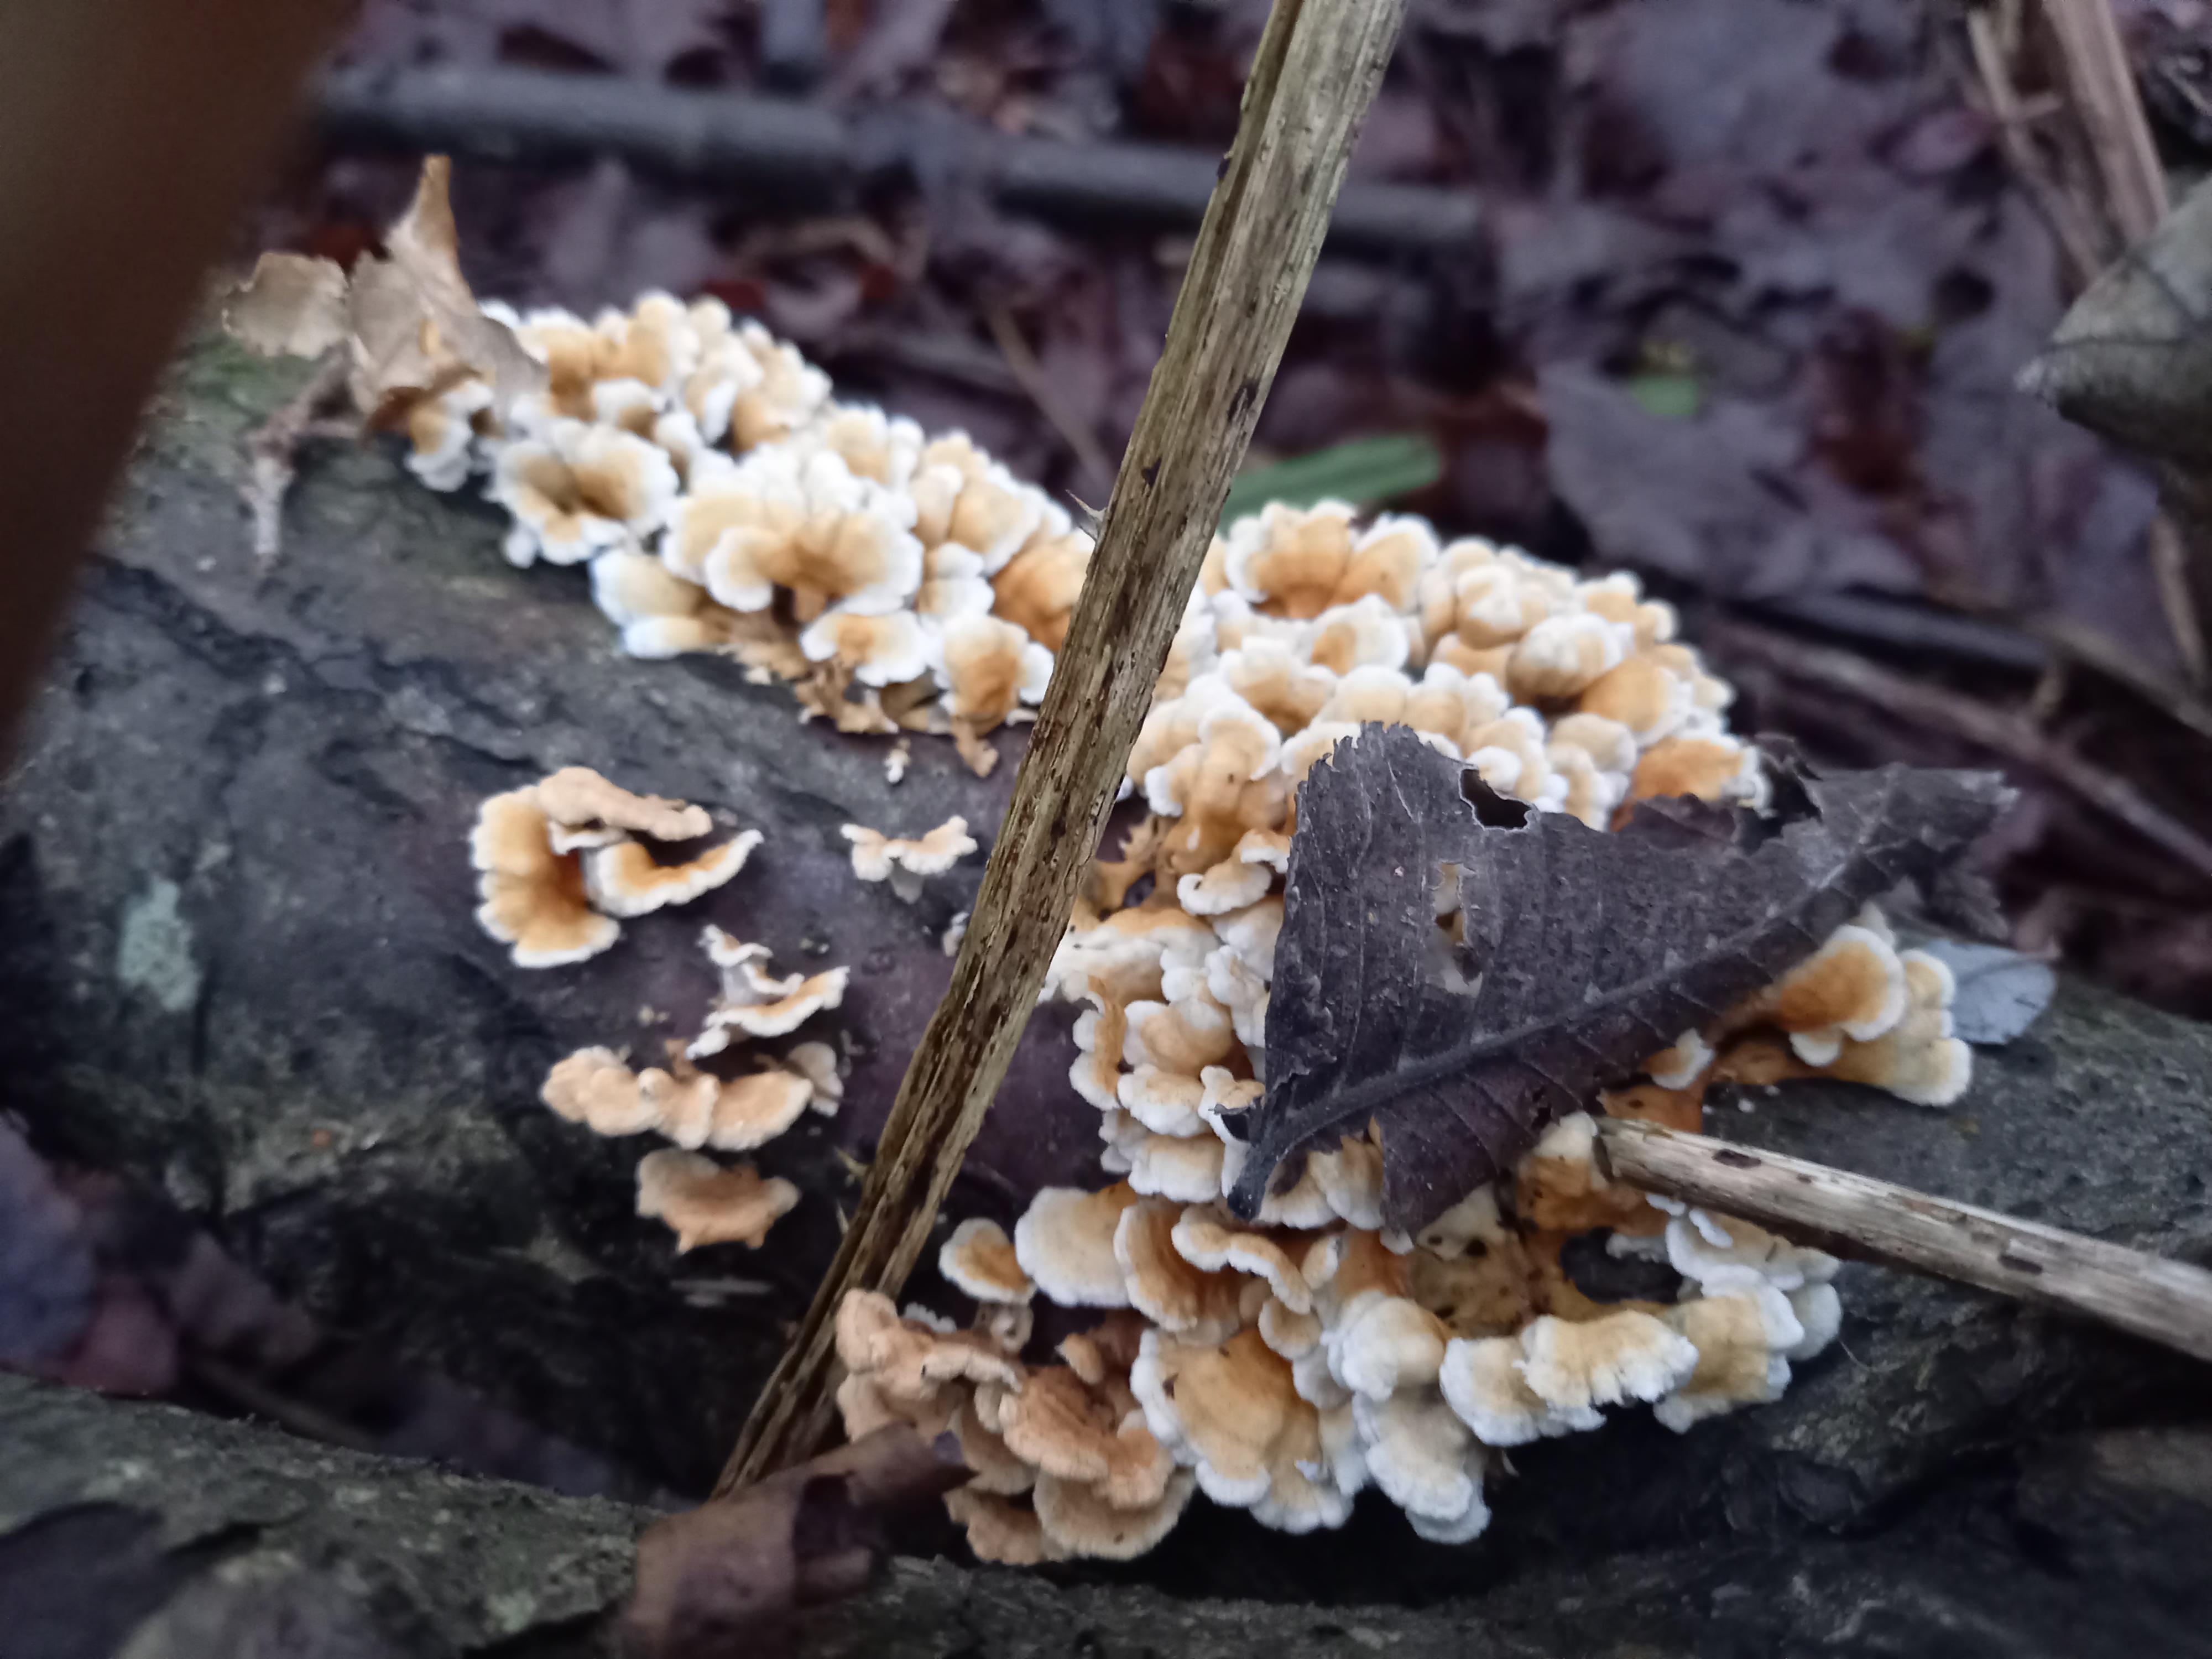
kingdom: Fungi
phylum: Basidiomycota
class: Agaricomycetes
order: Amylocorticiales
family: Amylocorticiaceae
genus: Plicaturopsis
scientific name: Plicaturopsis crispa
